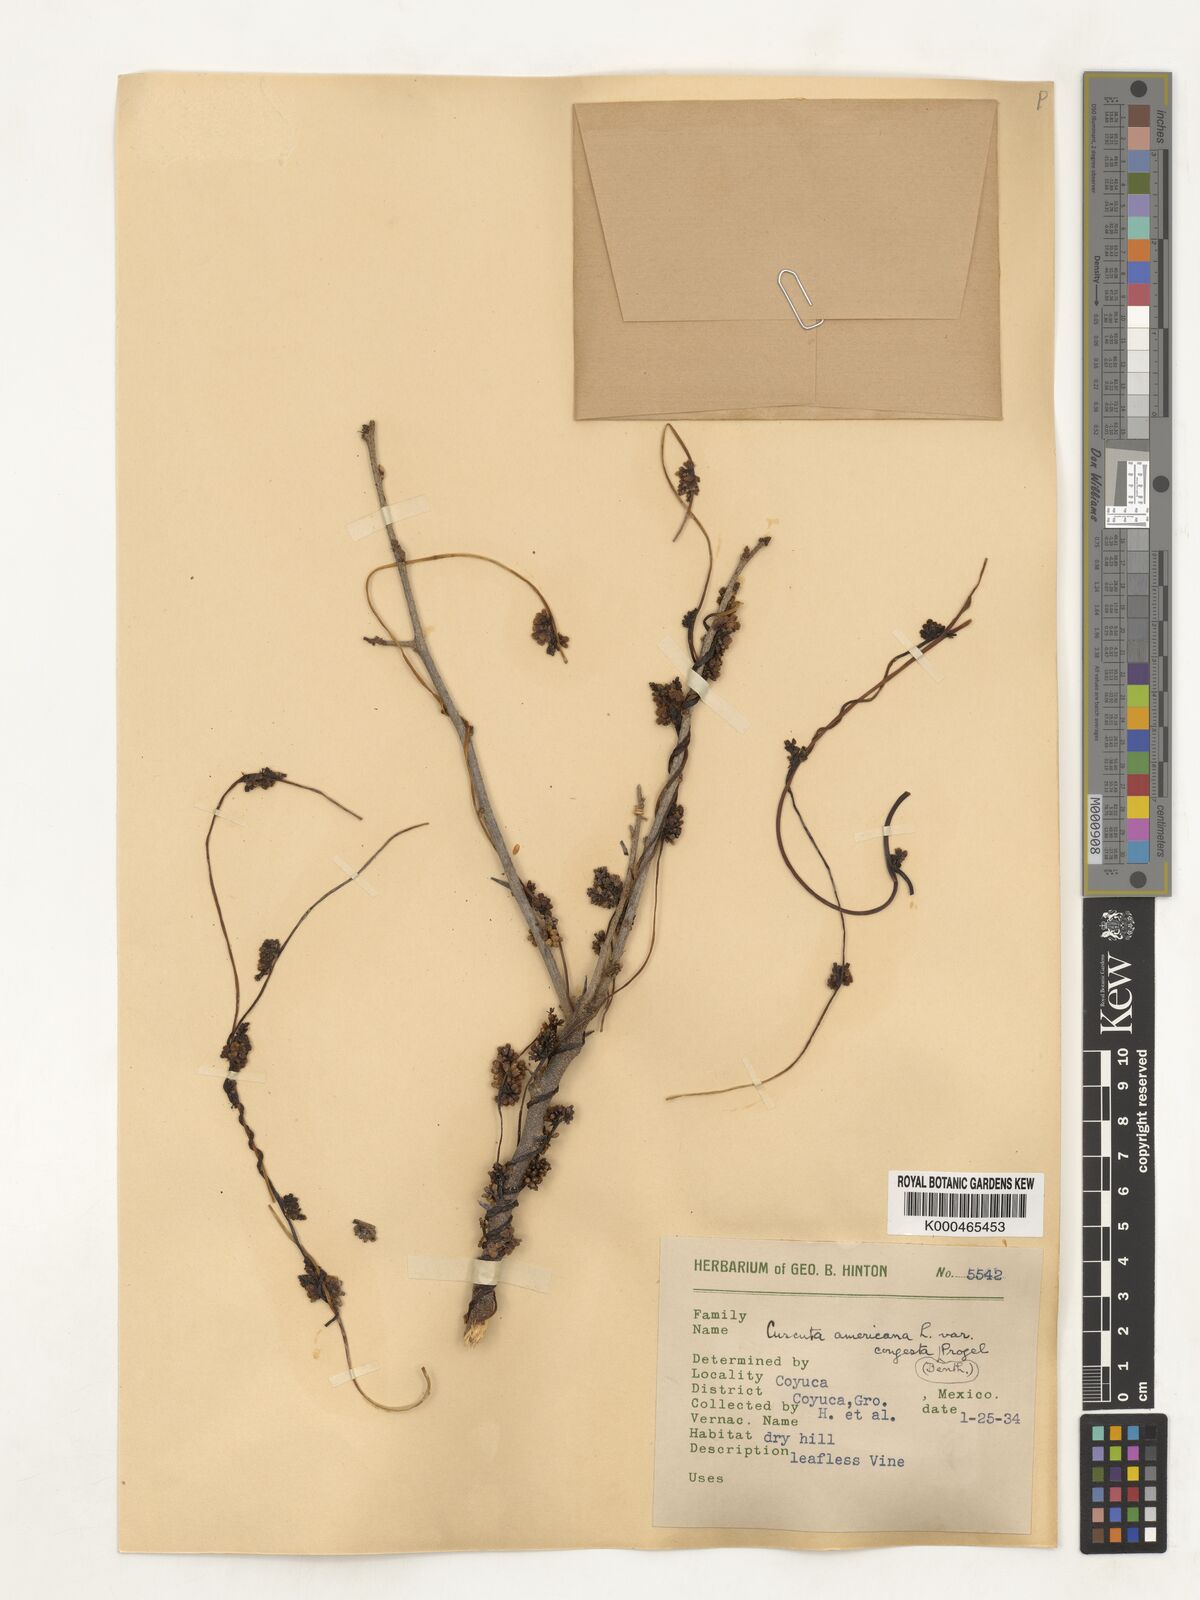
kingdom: Plantae
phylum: Tracheophyta
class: Magnoliopsida
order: Solanales
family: Convolvulaceae
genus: Cuscuta
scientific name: Cuscuta americana
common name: American dodder
